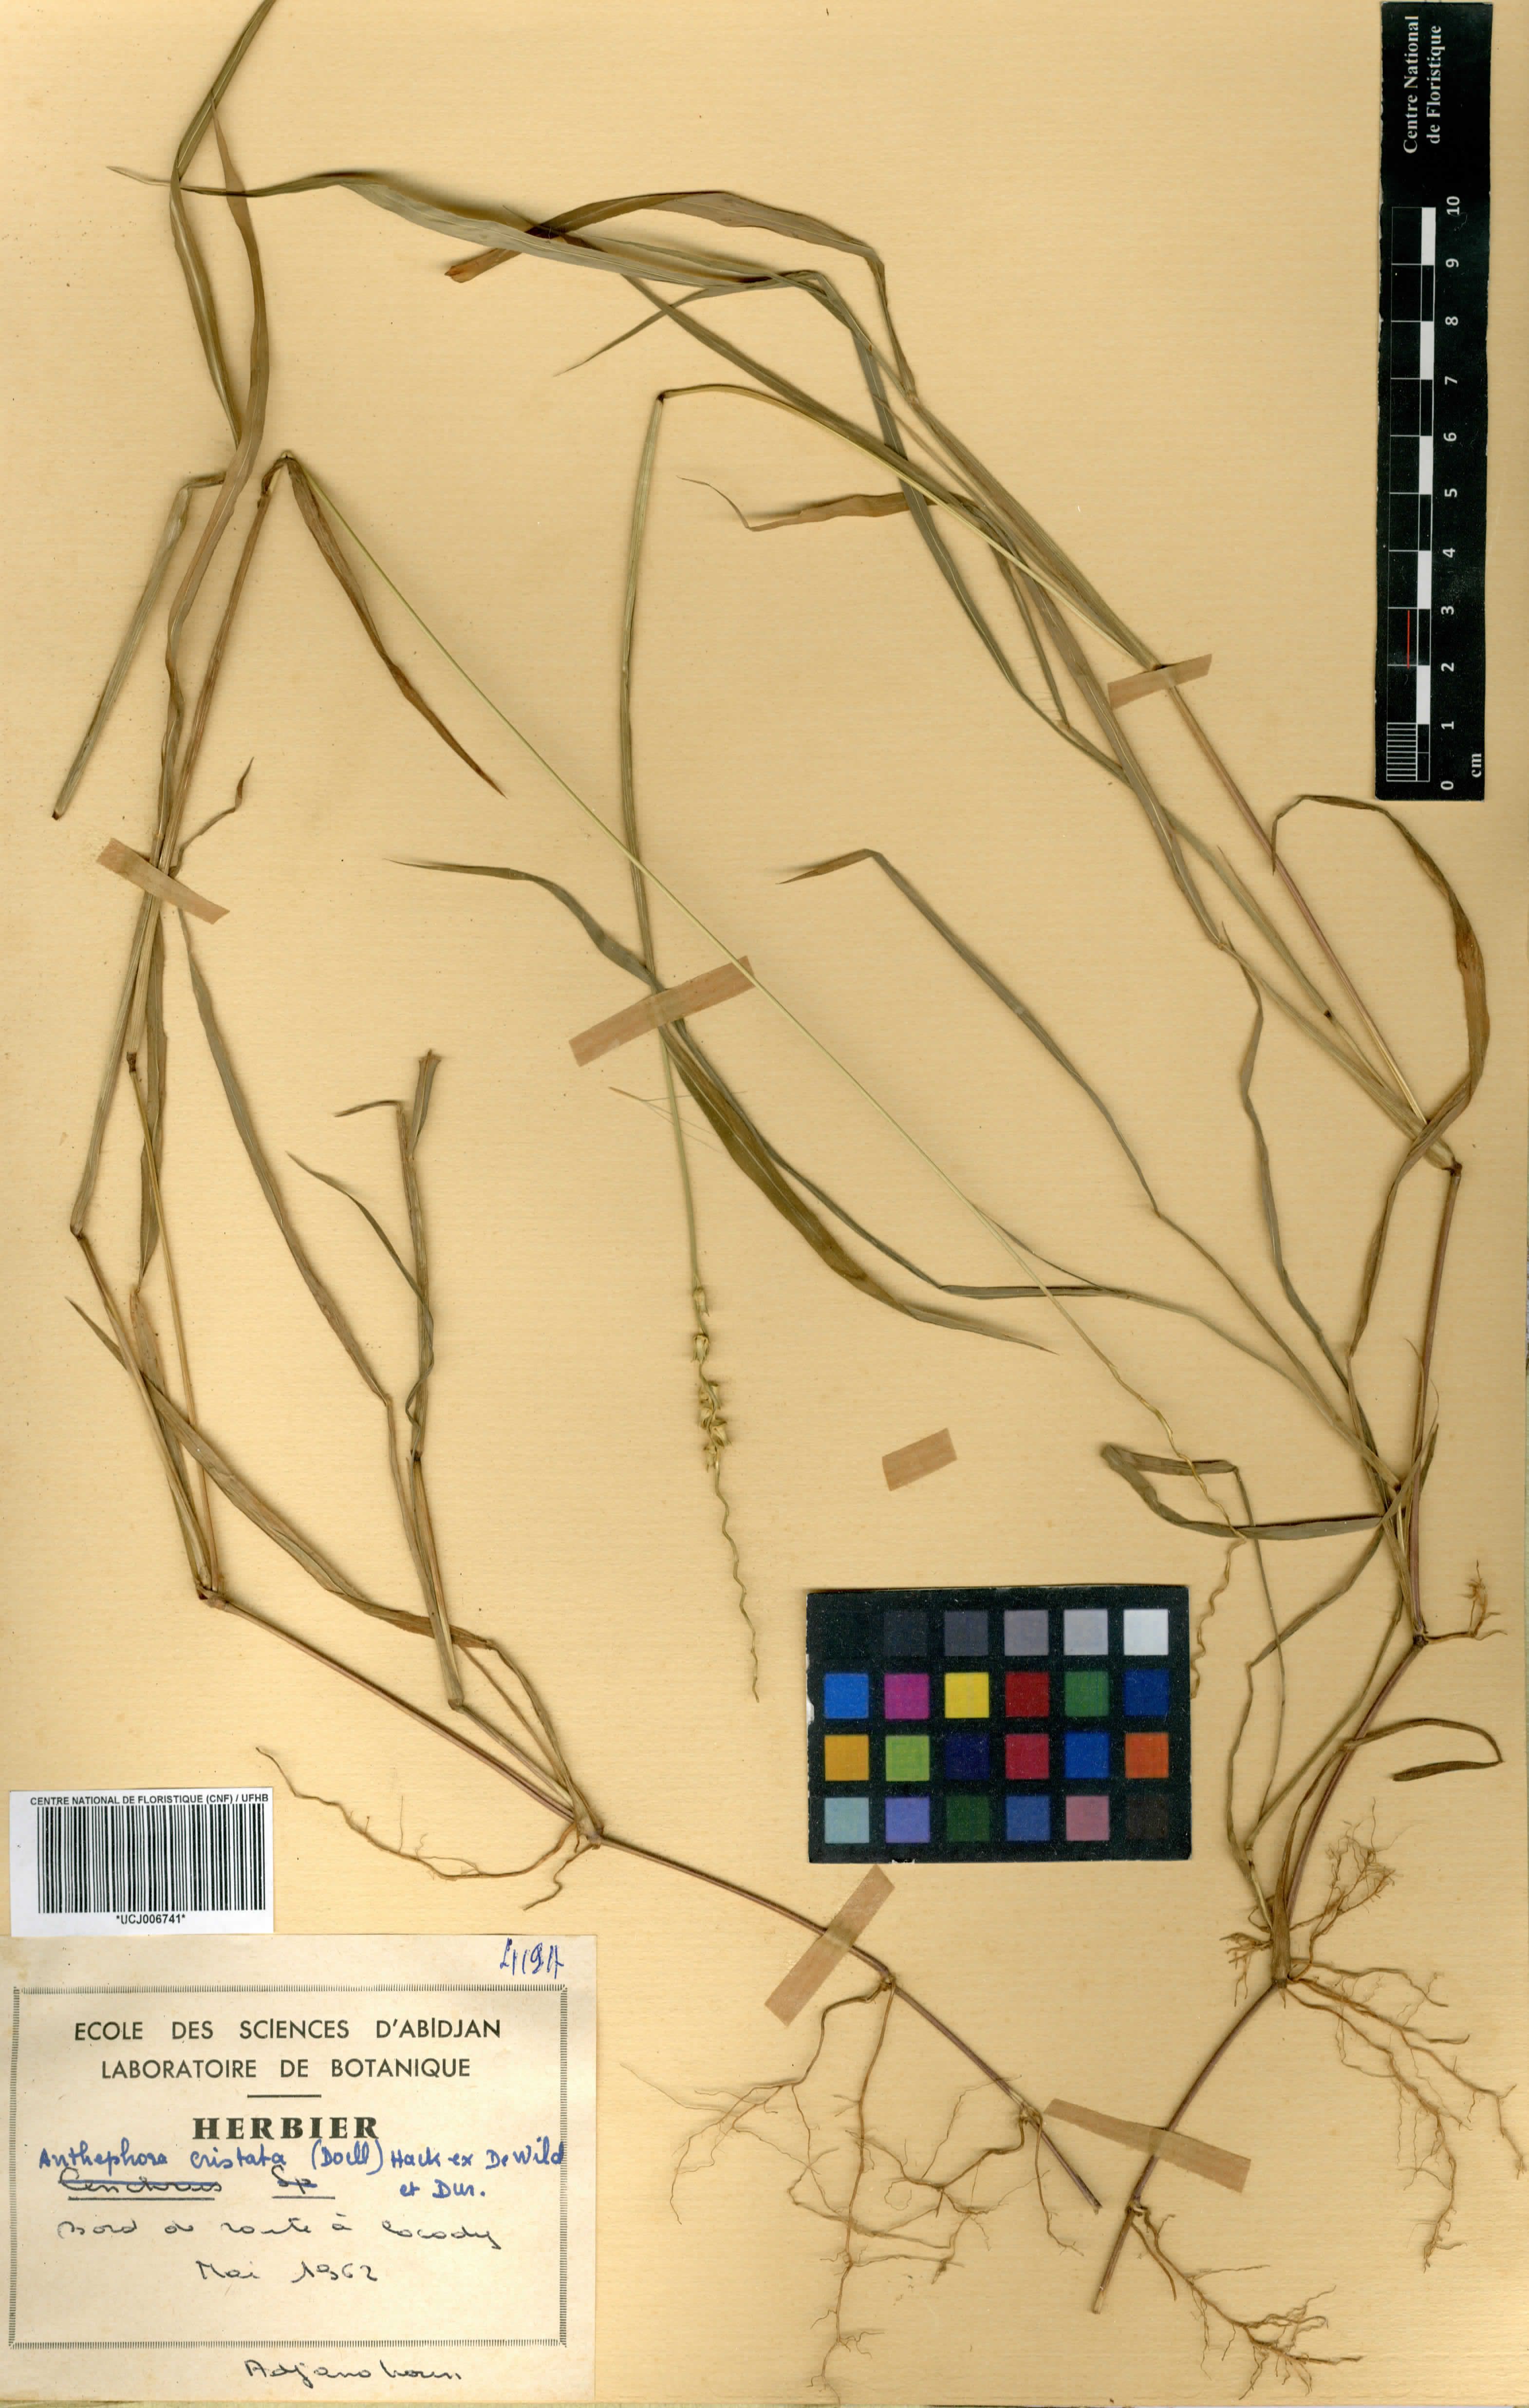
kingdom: Plantae
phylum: Tracheophyta
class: Liliopsida
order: Poales
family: Poaceae
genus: Anthephora
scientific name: Anthephora cristata
